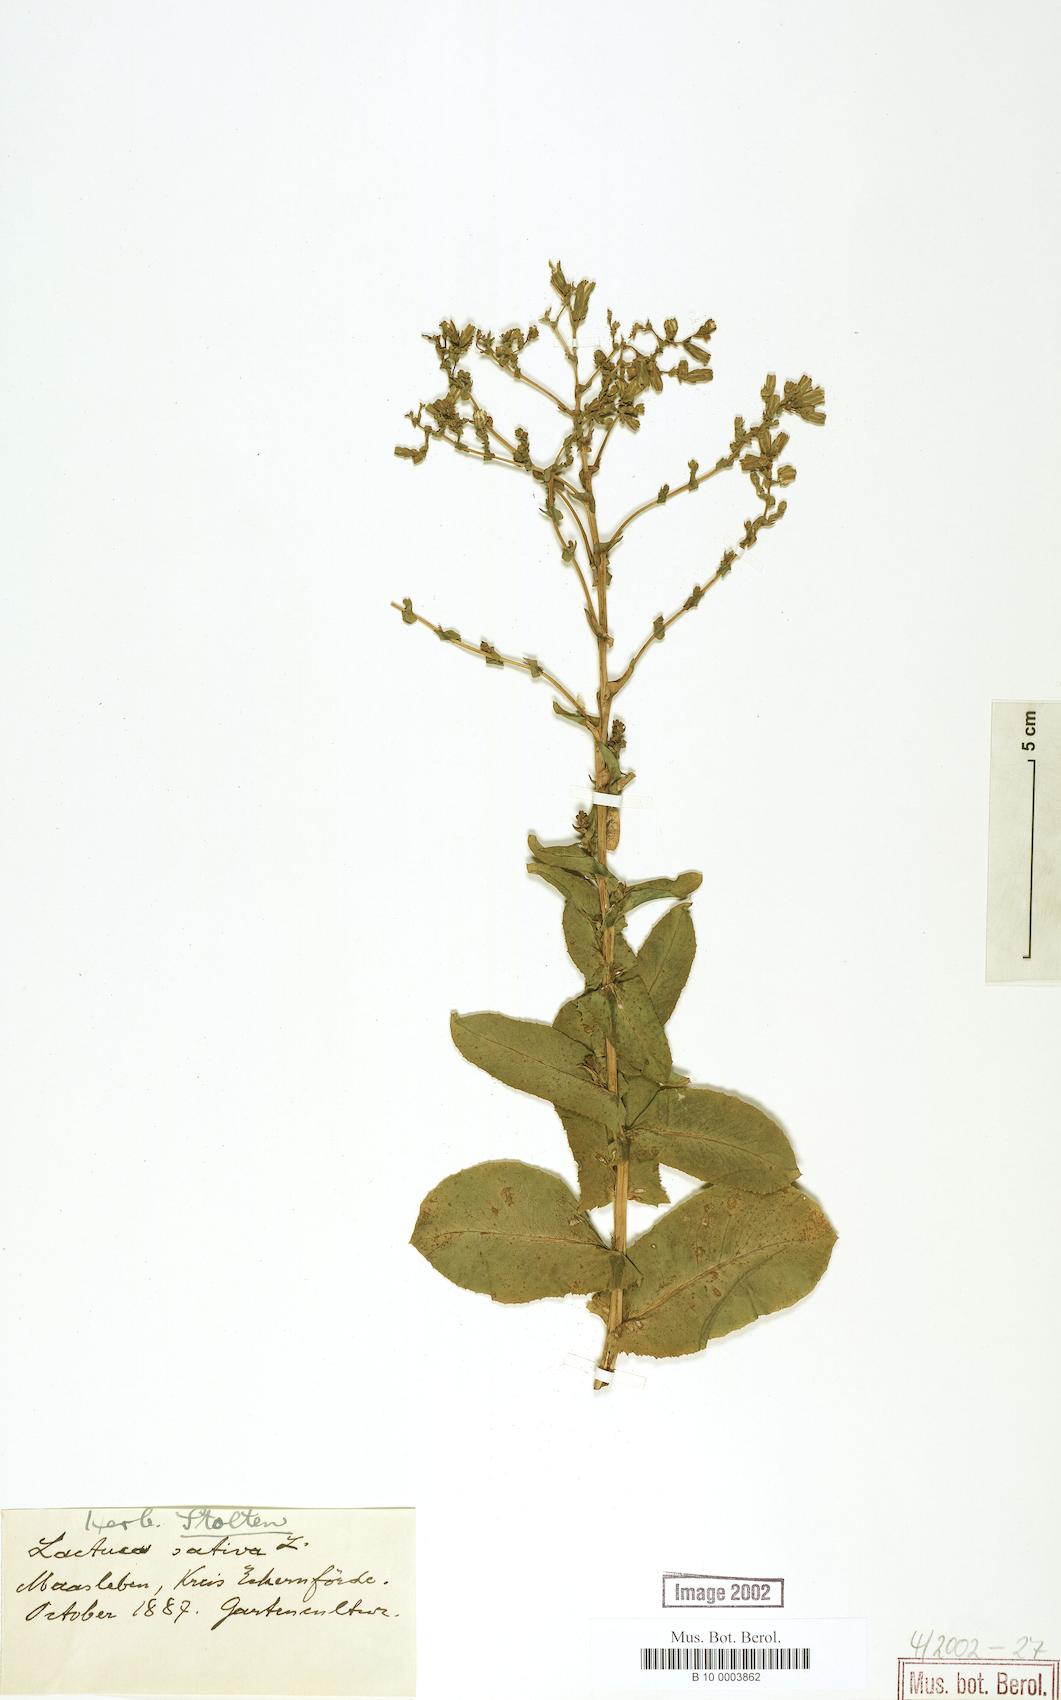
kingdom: Plantae
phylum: Tracheophyta
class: Magnoliopsida
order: Asterales
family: Asteraceae
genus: Lactuca
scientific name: Lactuca sativa
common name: Garden lettuce
